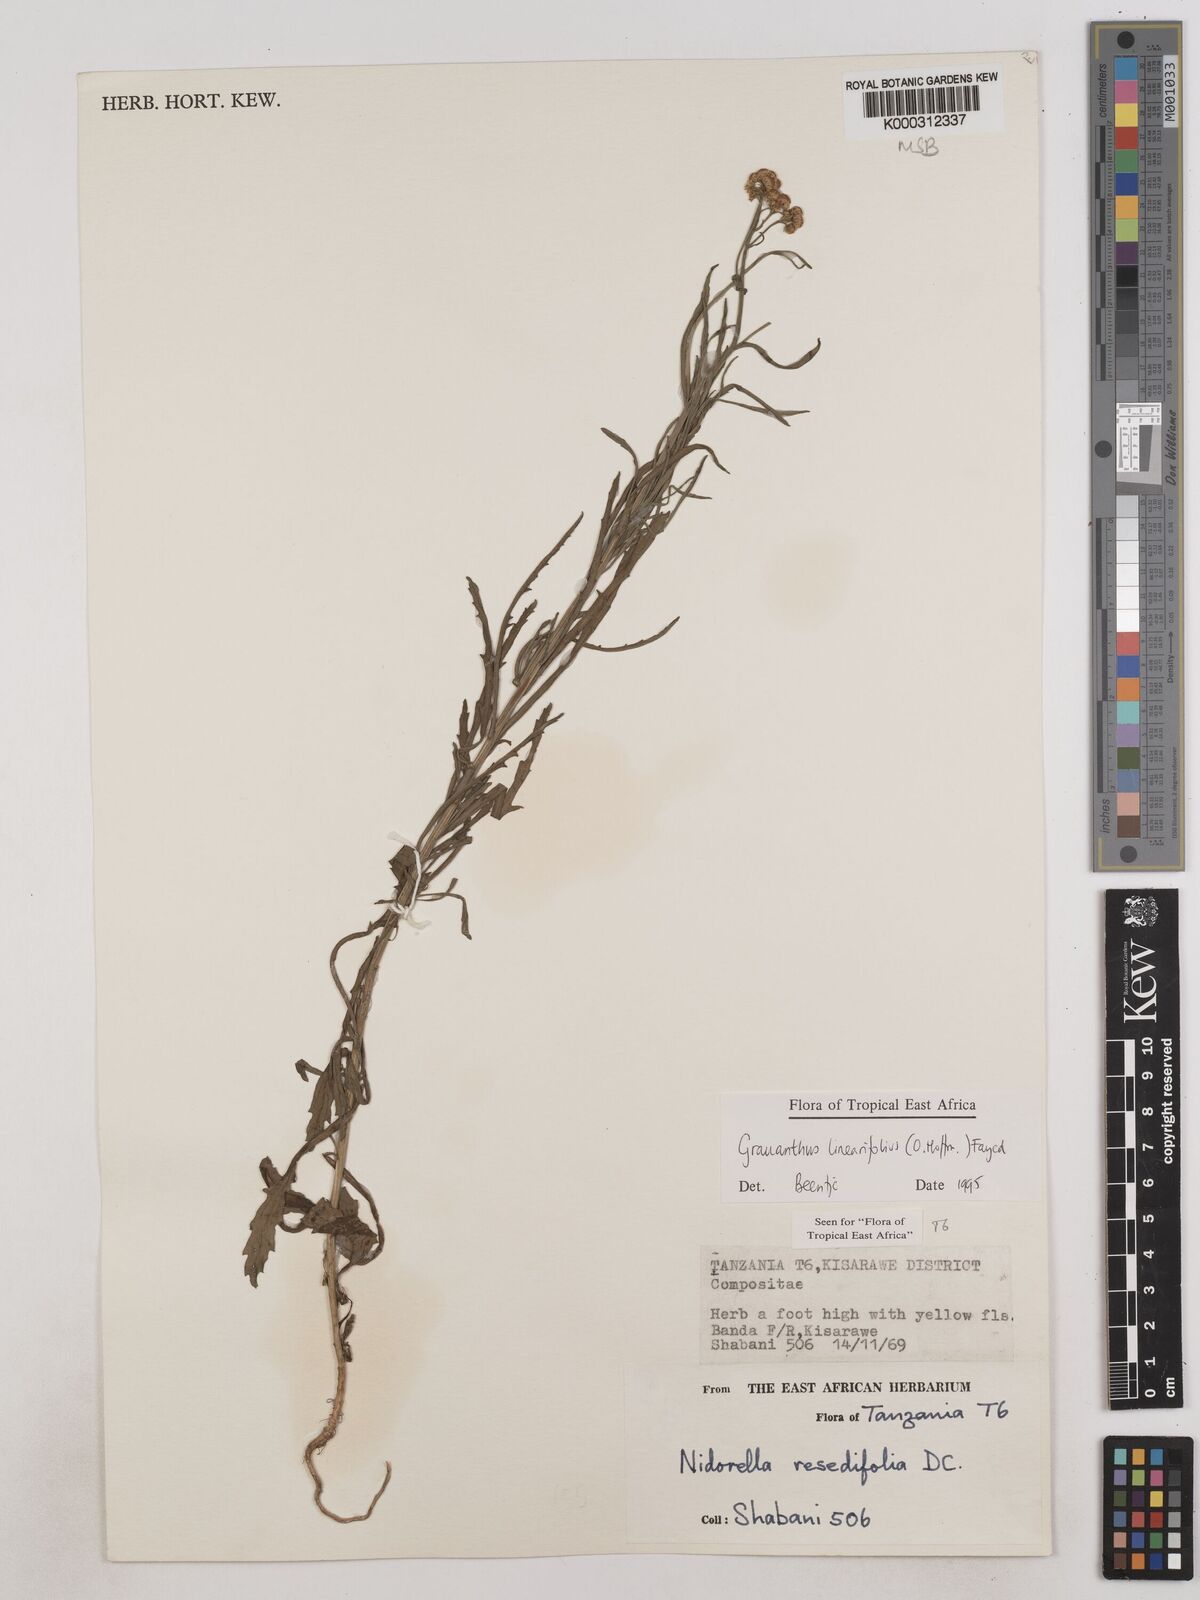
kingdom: Plantae
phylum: Tracheophyta
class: Magnoliopsida
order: Asterales
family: Asteraceae
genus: Grauanthus
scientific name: Grauanthus linearifolius
